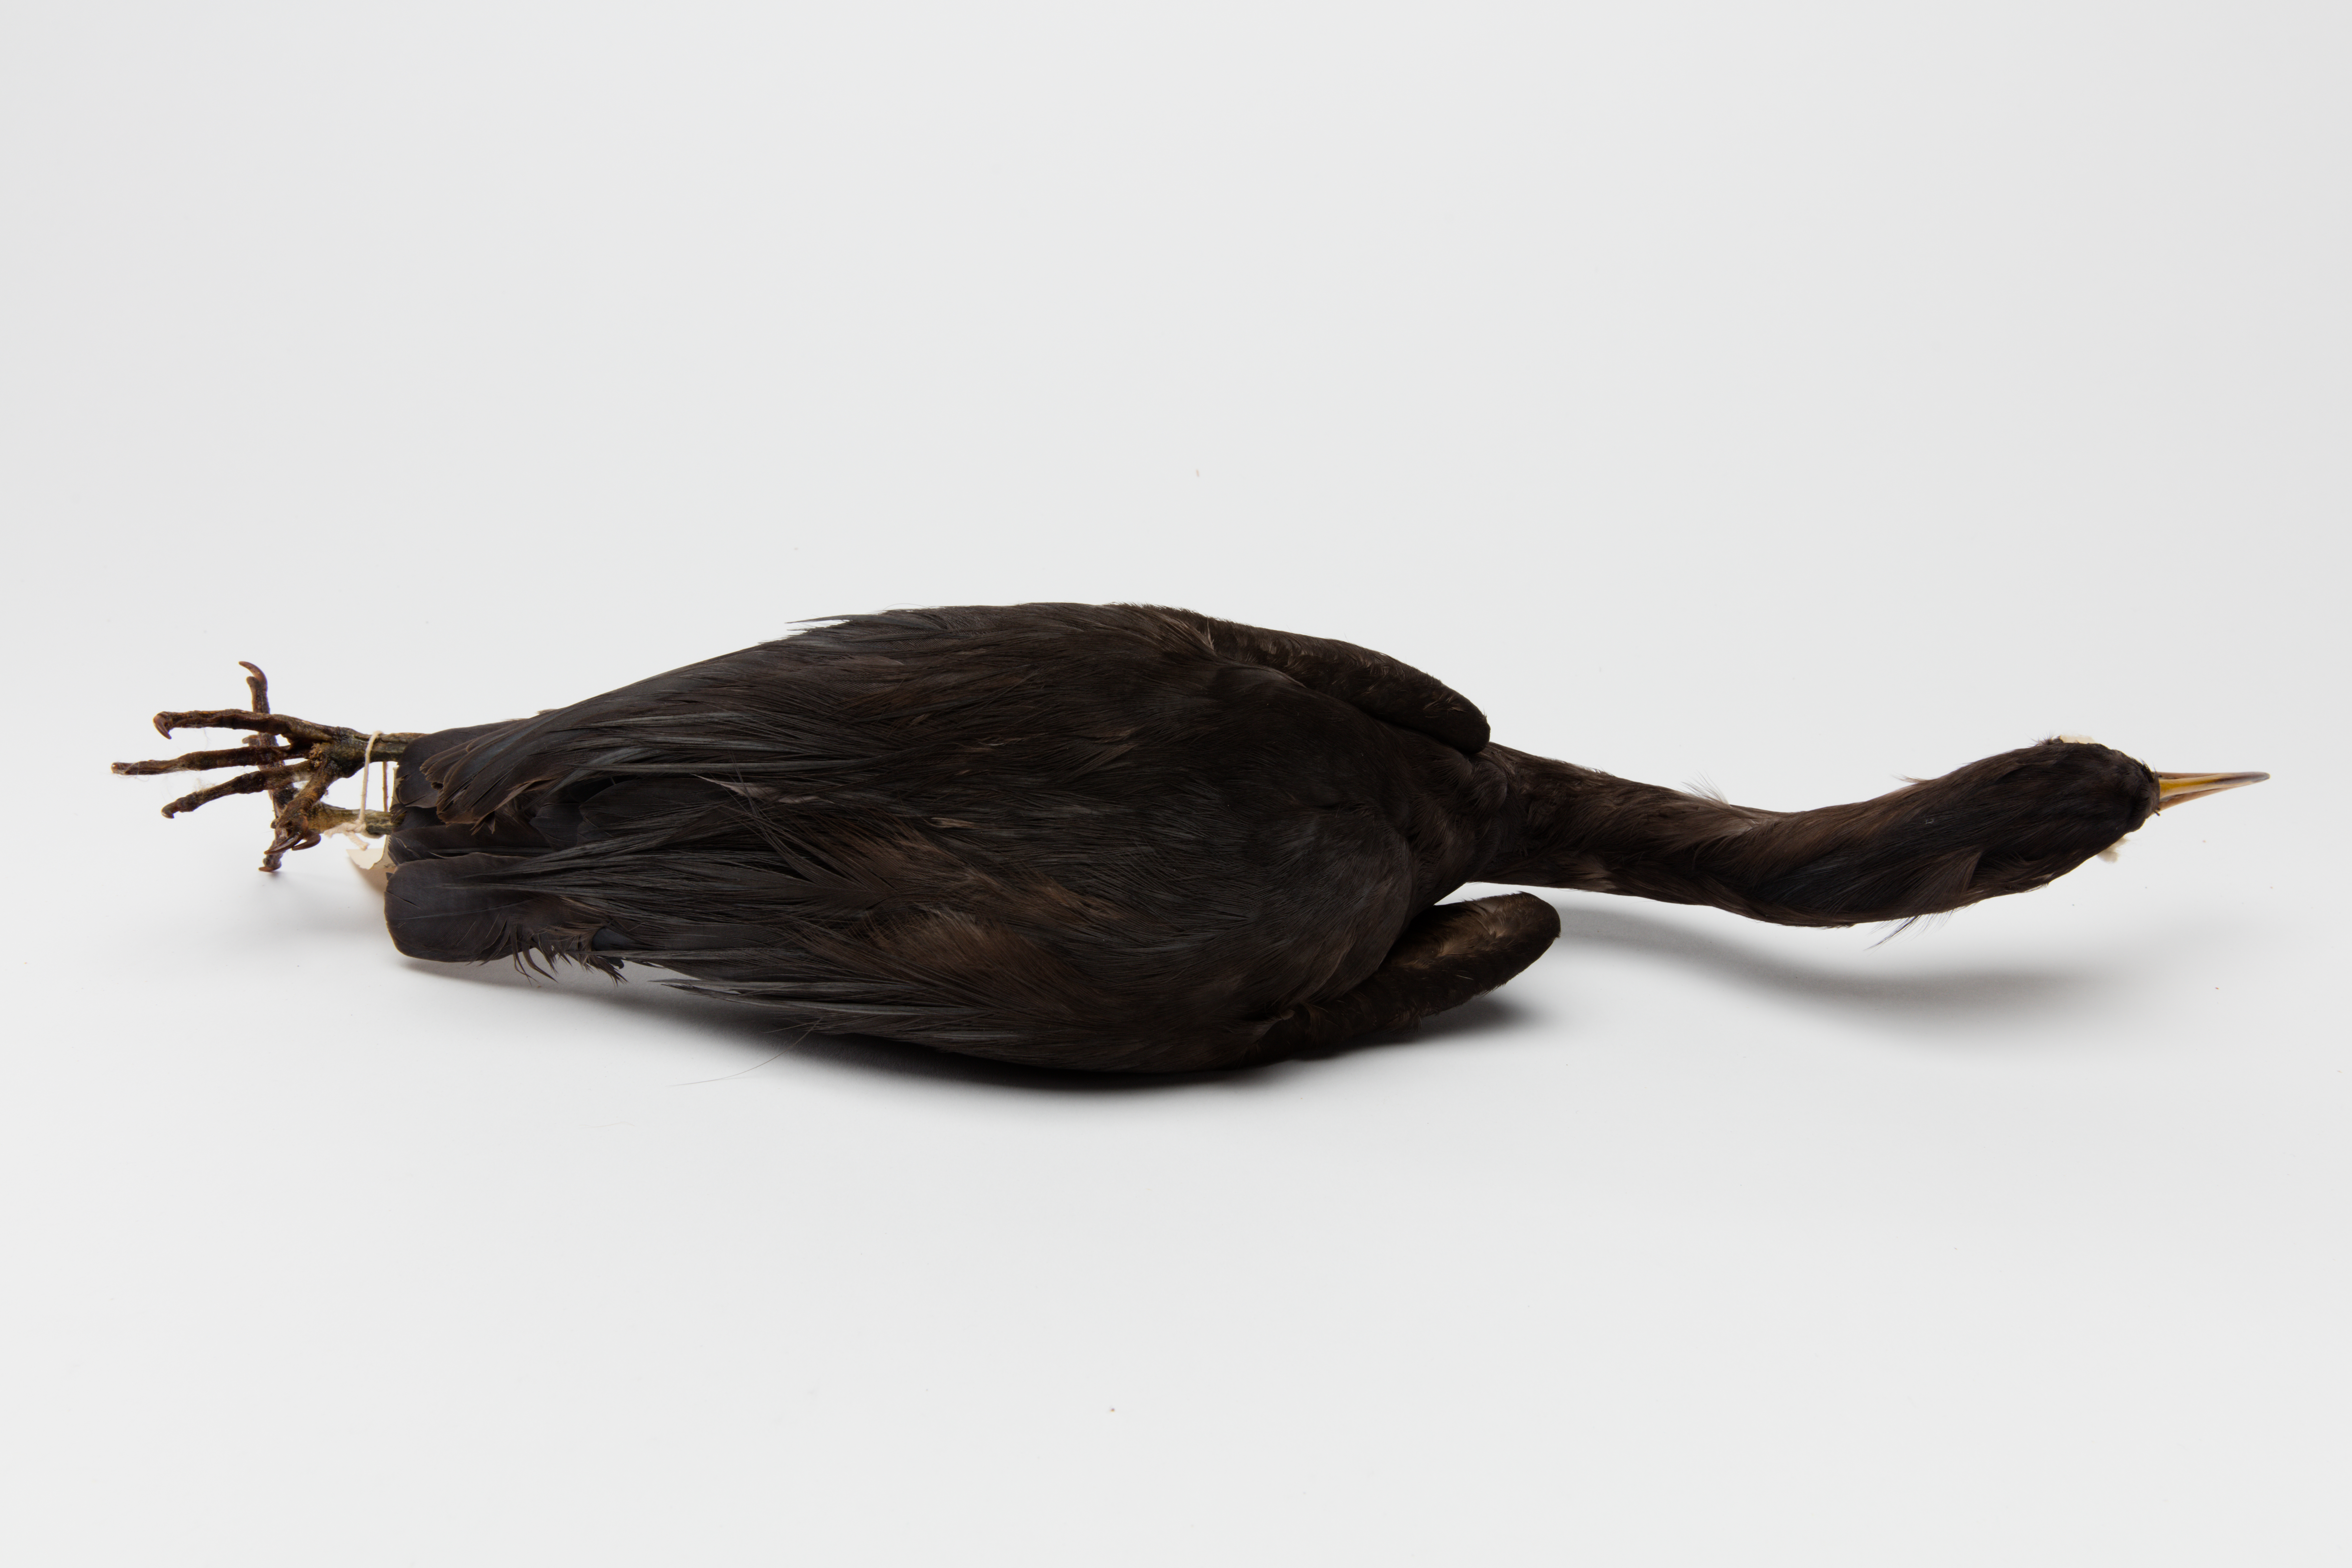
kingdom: Animalia
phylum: Chordata
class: Aves
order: Pelecaniformes
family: Ardeidae
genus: Egretta
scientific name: Egretta sacra
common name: Pacific reef heron
